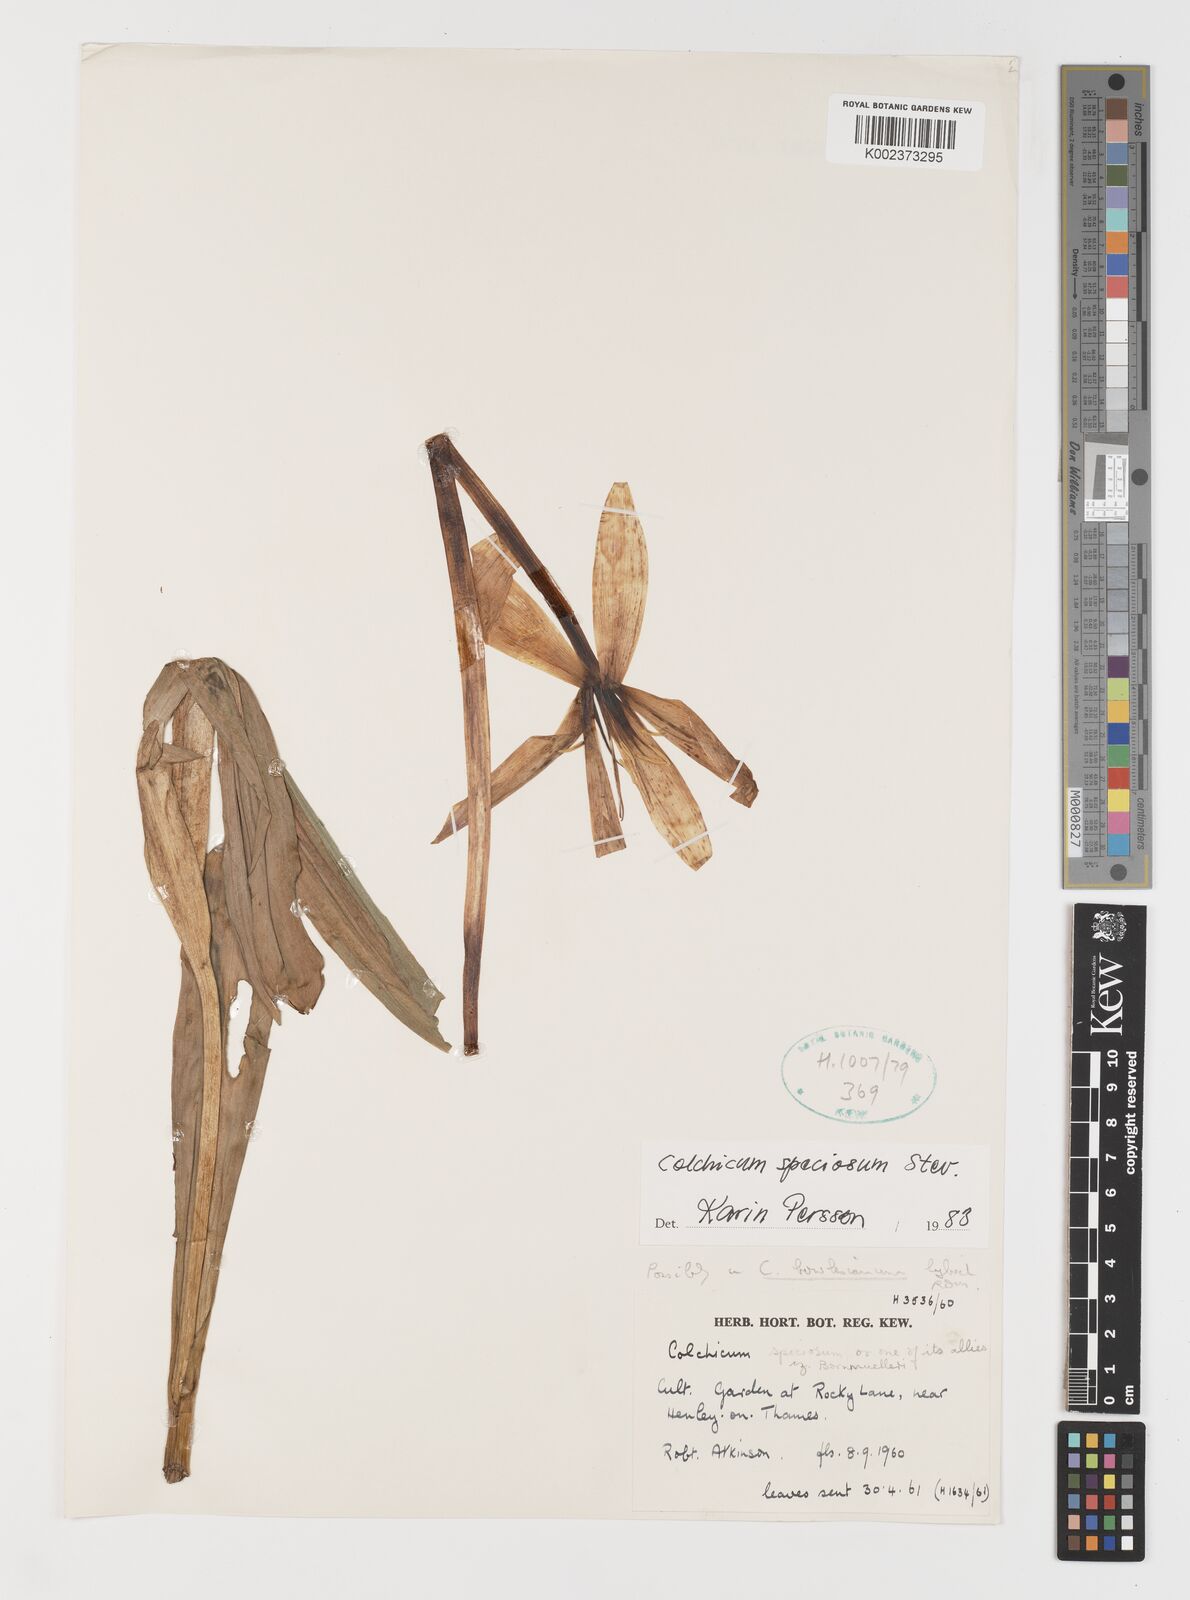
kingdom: Plantae
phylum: Tracheophyta
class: Liliopsida
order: Liliales
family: Colchicaceae
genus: Colchicum
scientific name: Colchicum speciosum
